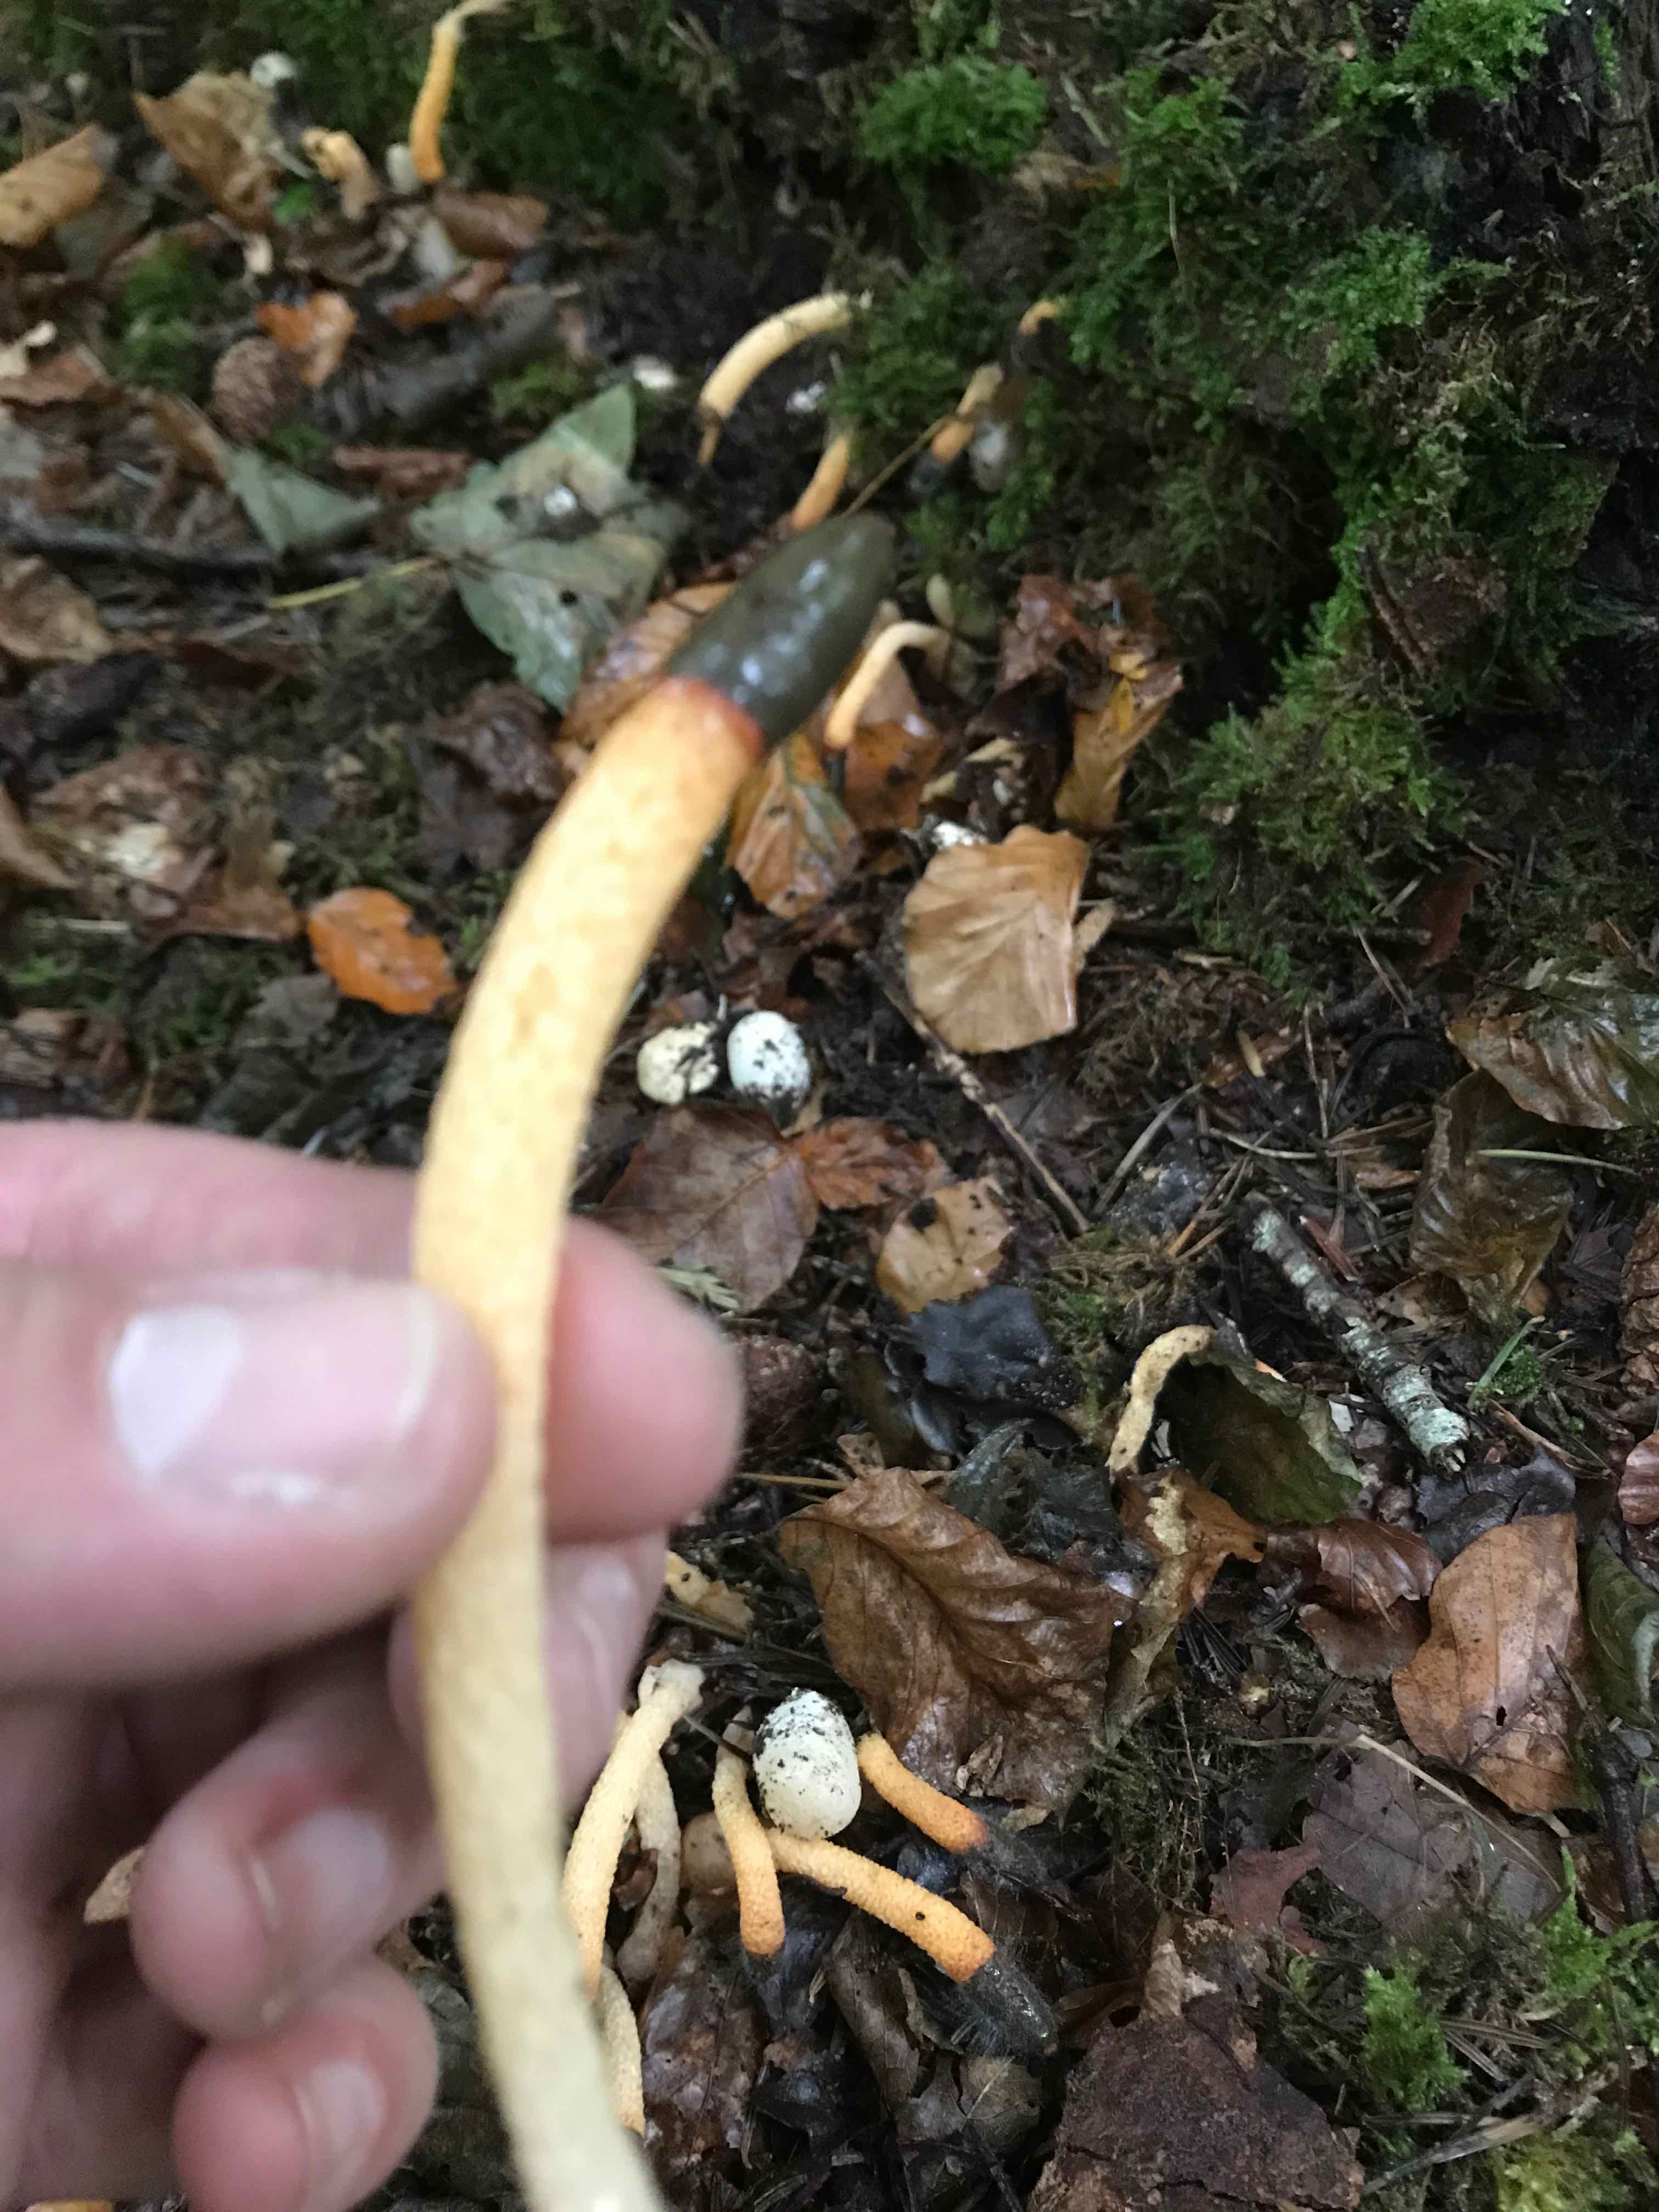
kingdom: Fungi
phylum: Basidiomycota
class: Agaricomycetes
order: Phallales
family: Phallaceae
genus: Mutinus
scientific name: Mutinus caninus
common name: hunde-stinksvamp
